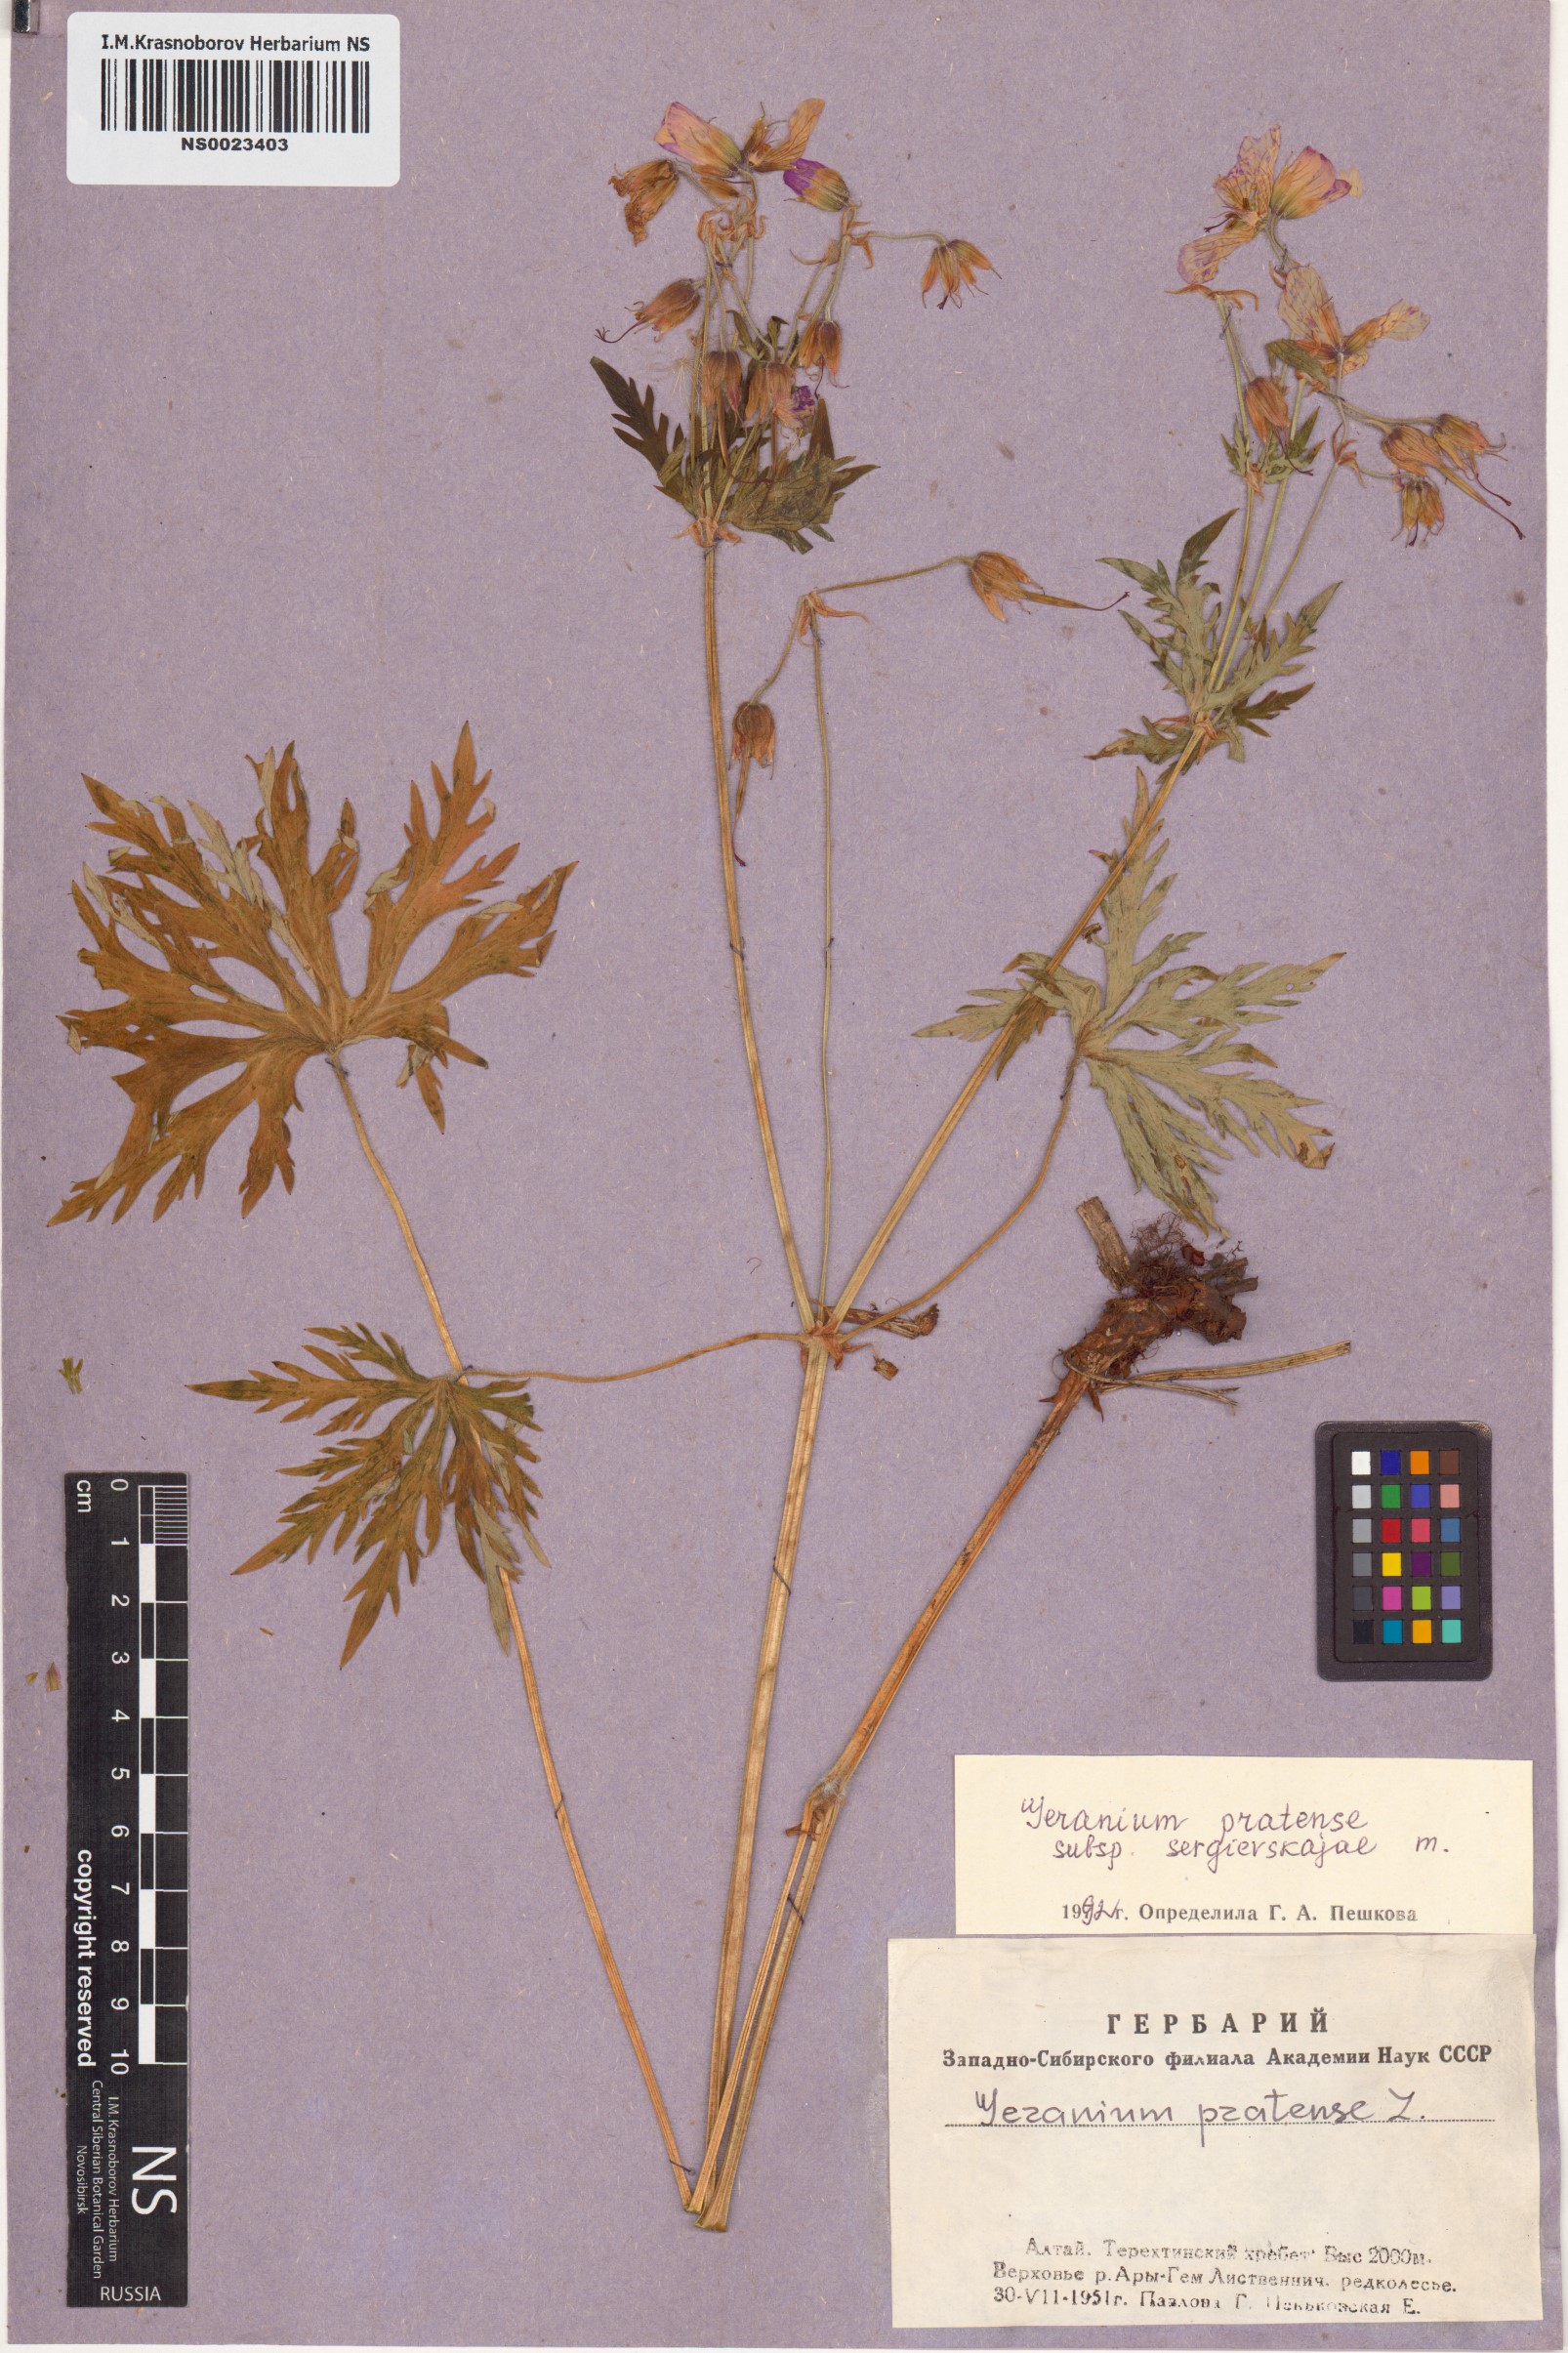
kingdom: Plantae
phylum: Tracheophyta
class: Magnoliopsida
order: Geraniales
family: Geraniaceae
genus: Geranium
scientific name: Geranium pratense
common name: Meadow crane's-bill
